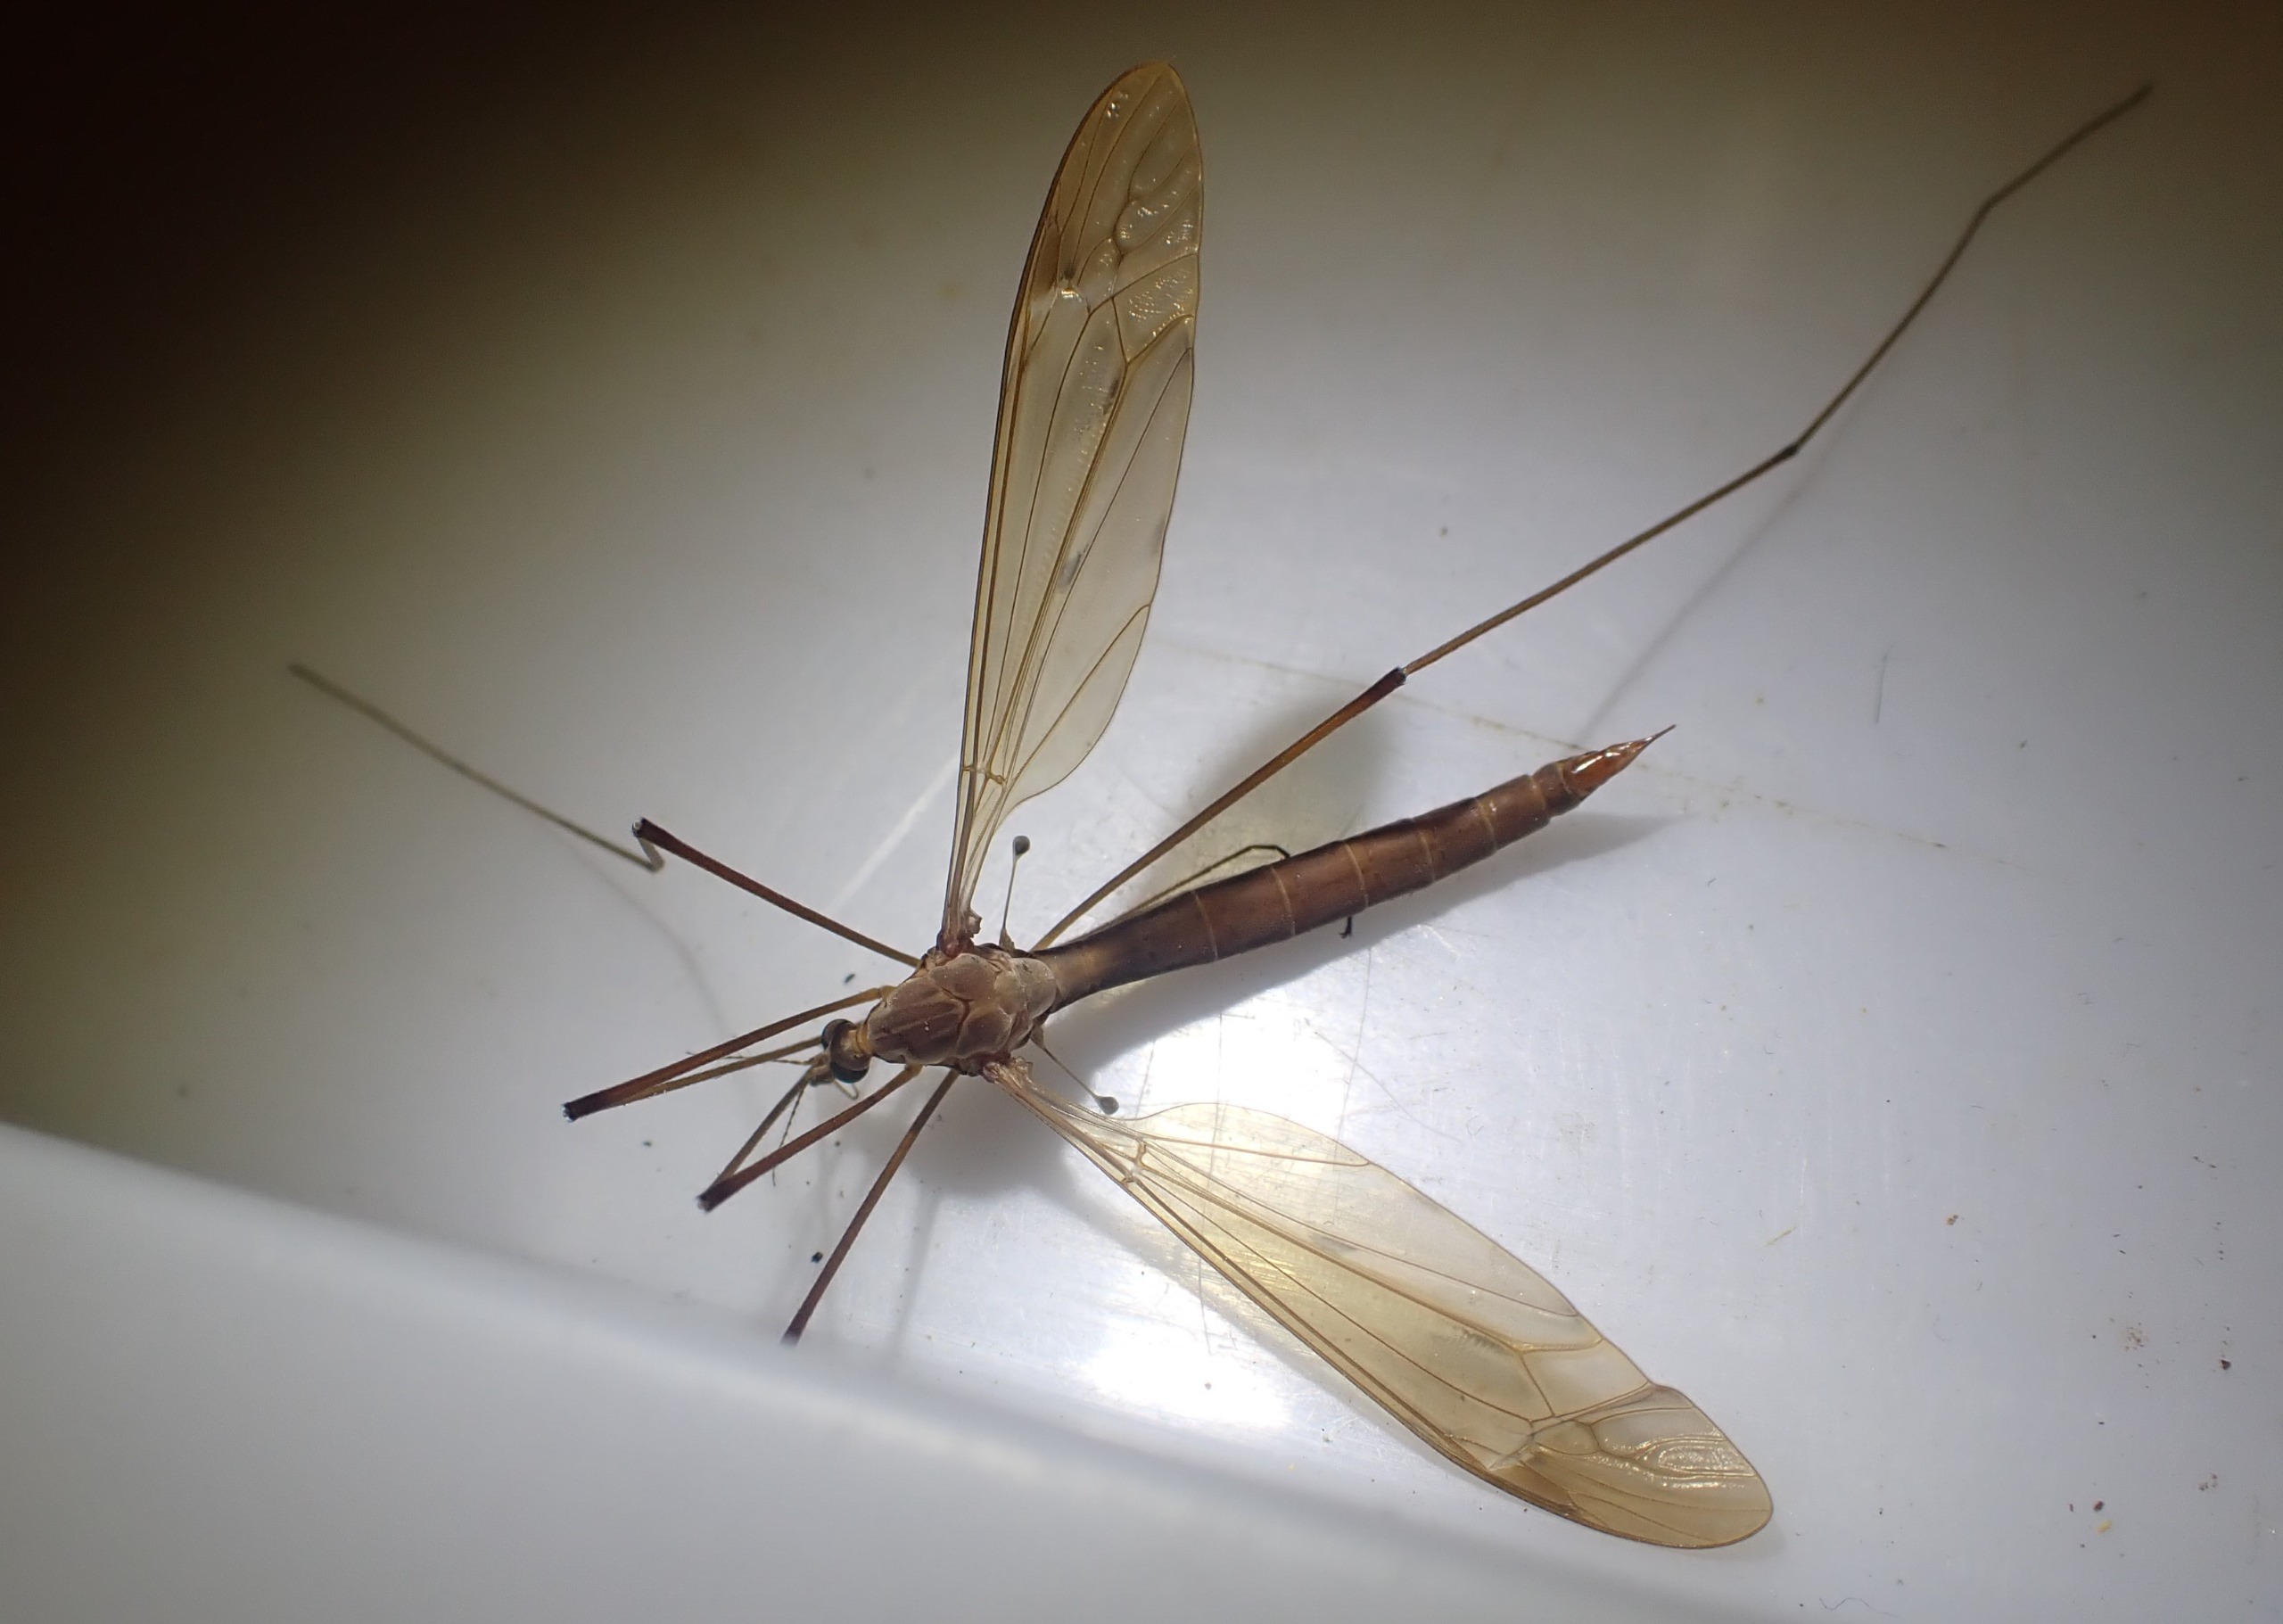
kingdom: Animalia
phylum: Arthropoda
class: Insecta
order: Diptera
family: Tipulidae
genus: Tipula
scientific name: Tipula fulvipennis
